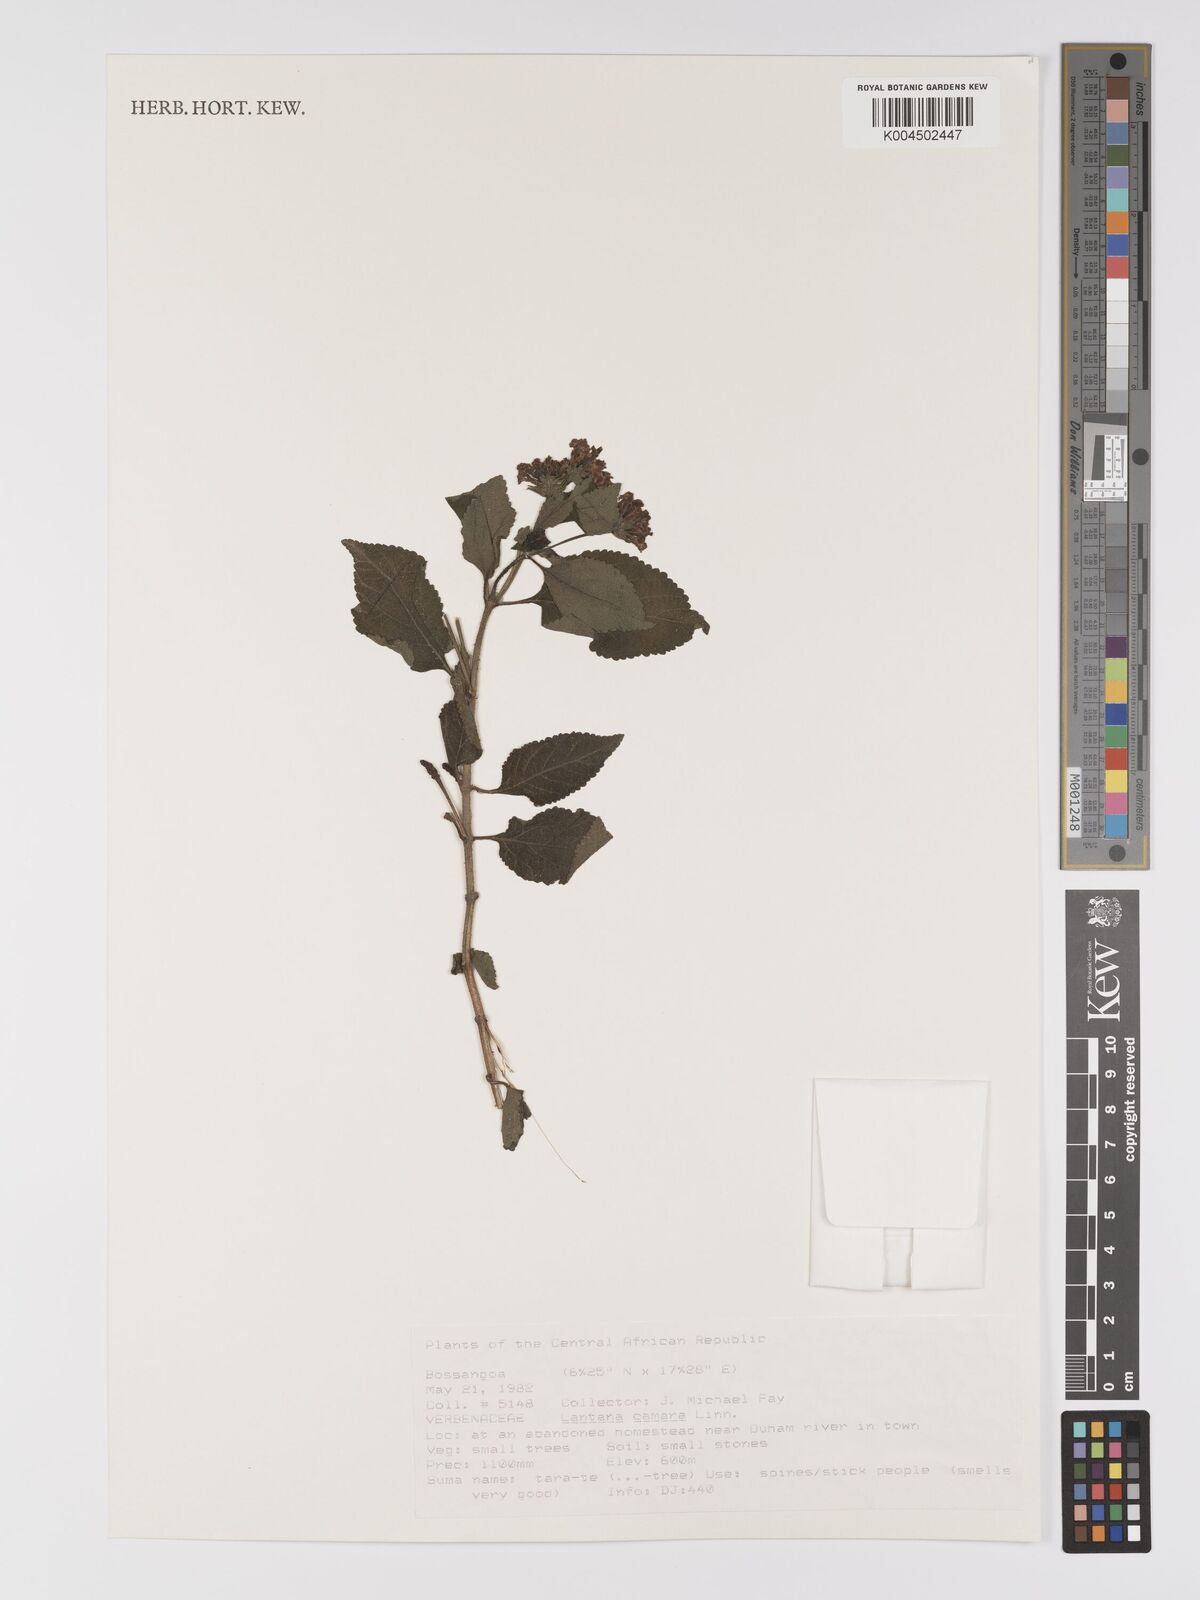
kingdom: Plantae
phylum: Tracheophyta
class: Magnoliopsida
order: Lamiales
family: Verbenaceae
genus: Lantana
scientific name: Lantana camara
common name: Lantana
